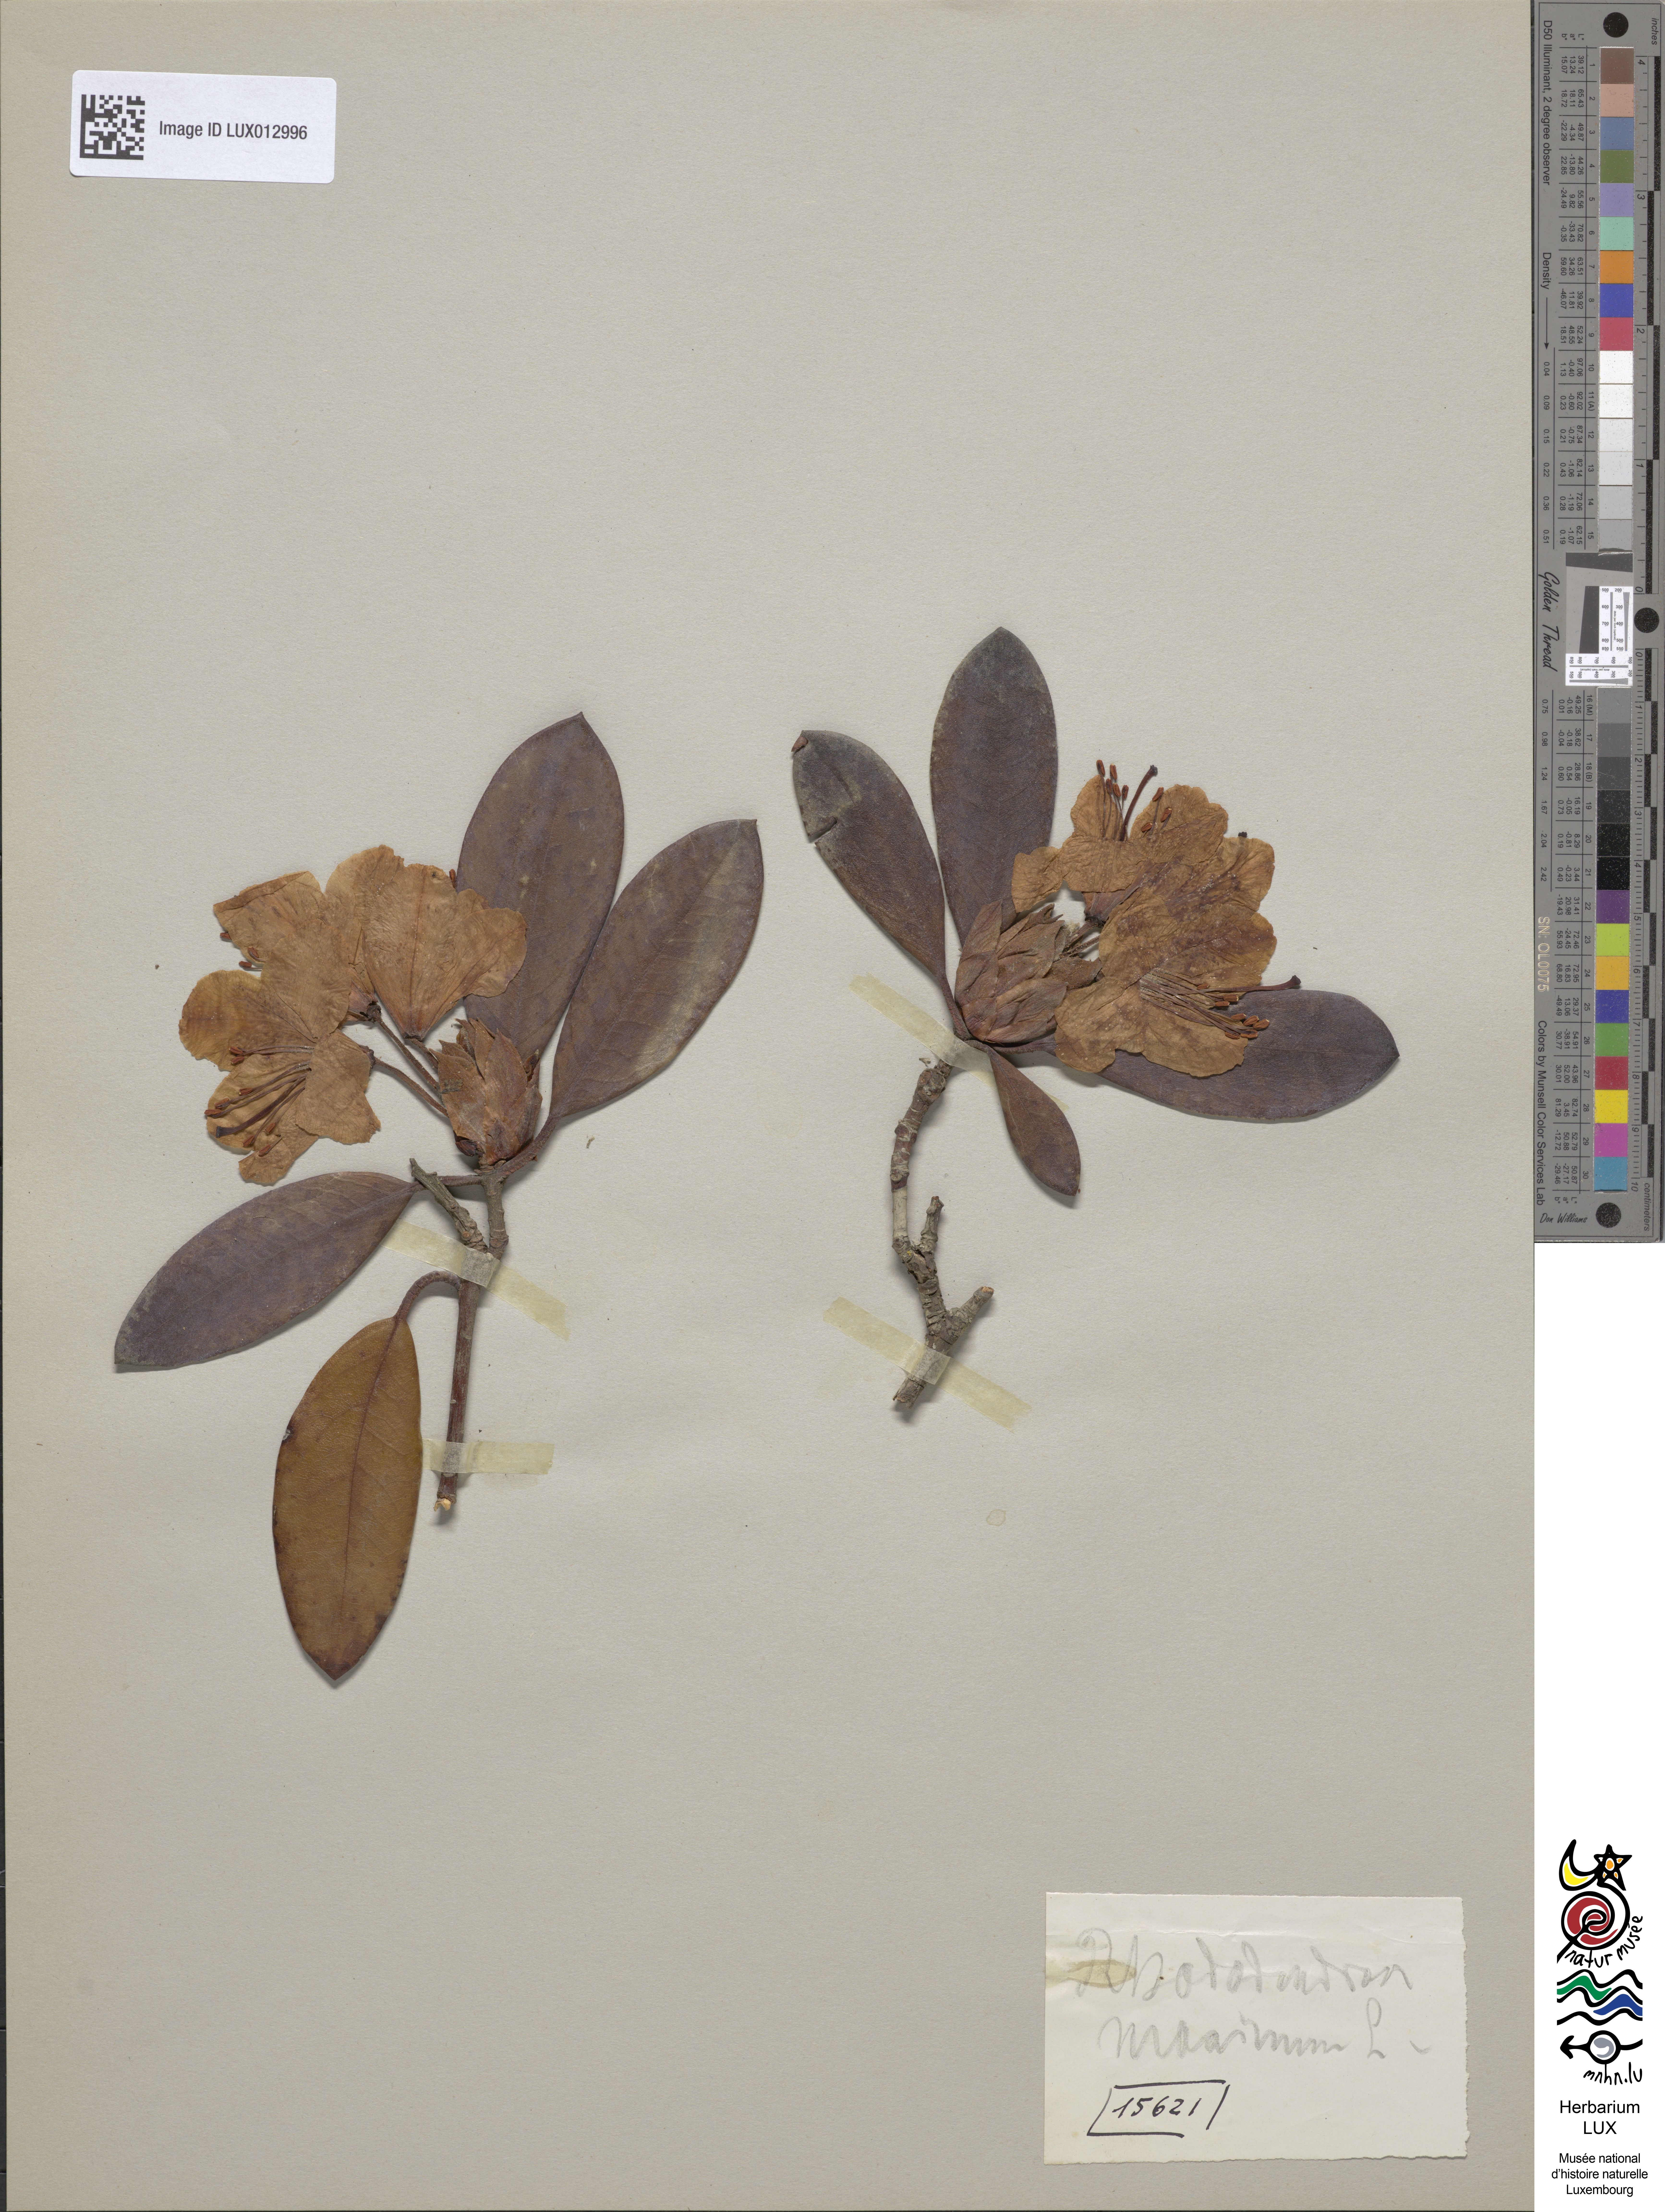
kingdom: Plantae
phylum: Tracheophyta
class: Magnoliopsida
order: Ericales
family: Ericaceae
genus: Rhododendron
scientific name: Rhododendron maximum
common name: Great rhododendron
